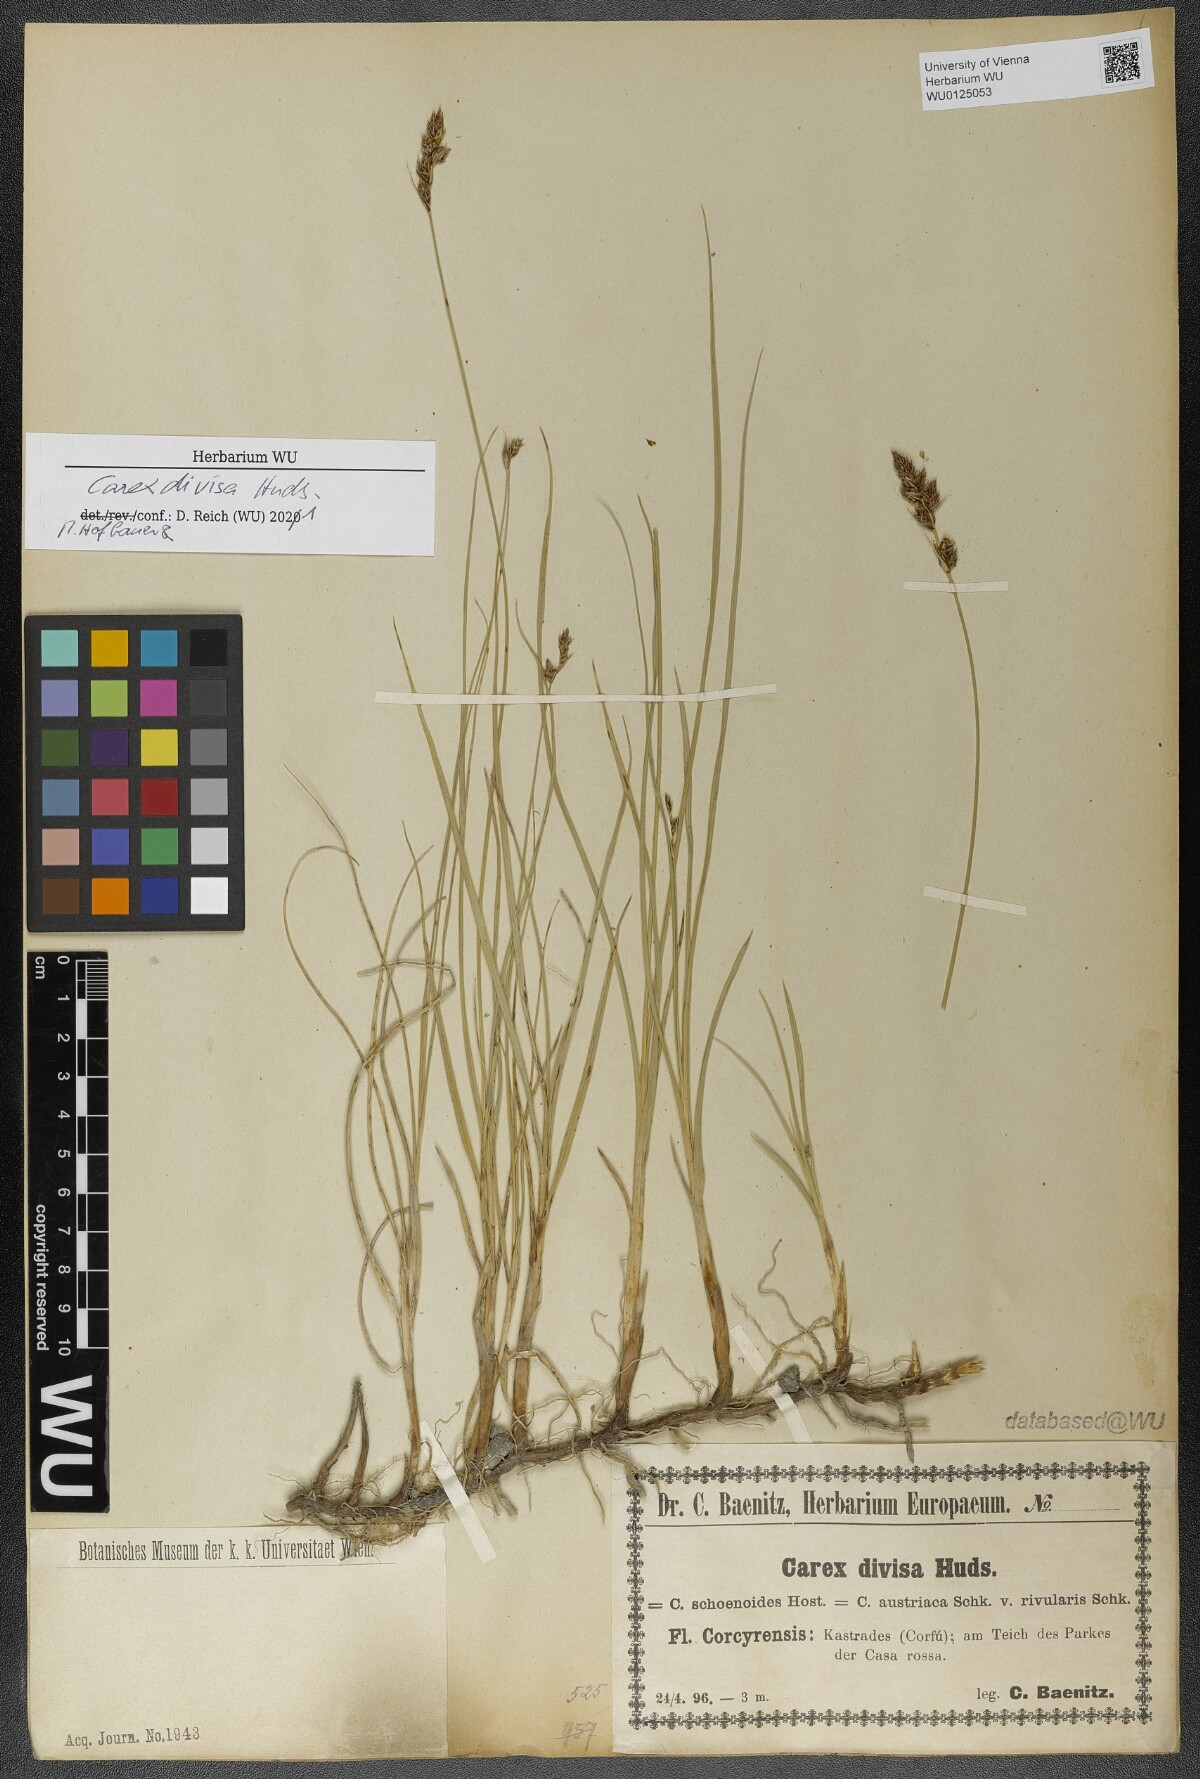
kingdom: Plantae
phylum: Tracheophyta
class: Liliopsida
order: Poales
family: Cyperaceae
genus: Carex
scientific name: Carex divisa
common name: Divided sedge
